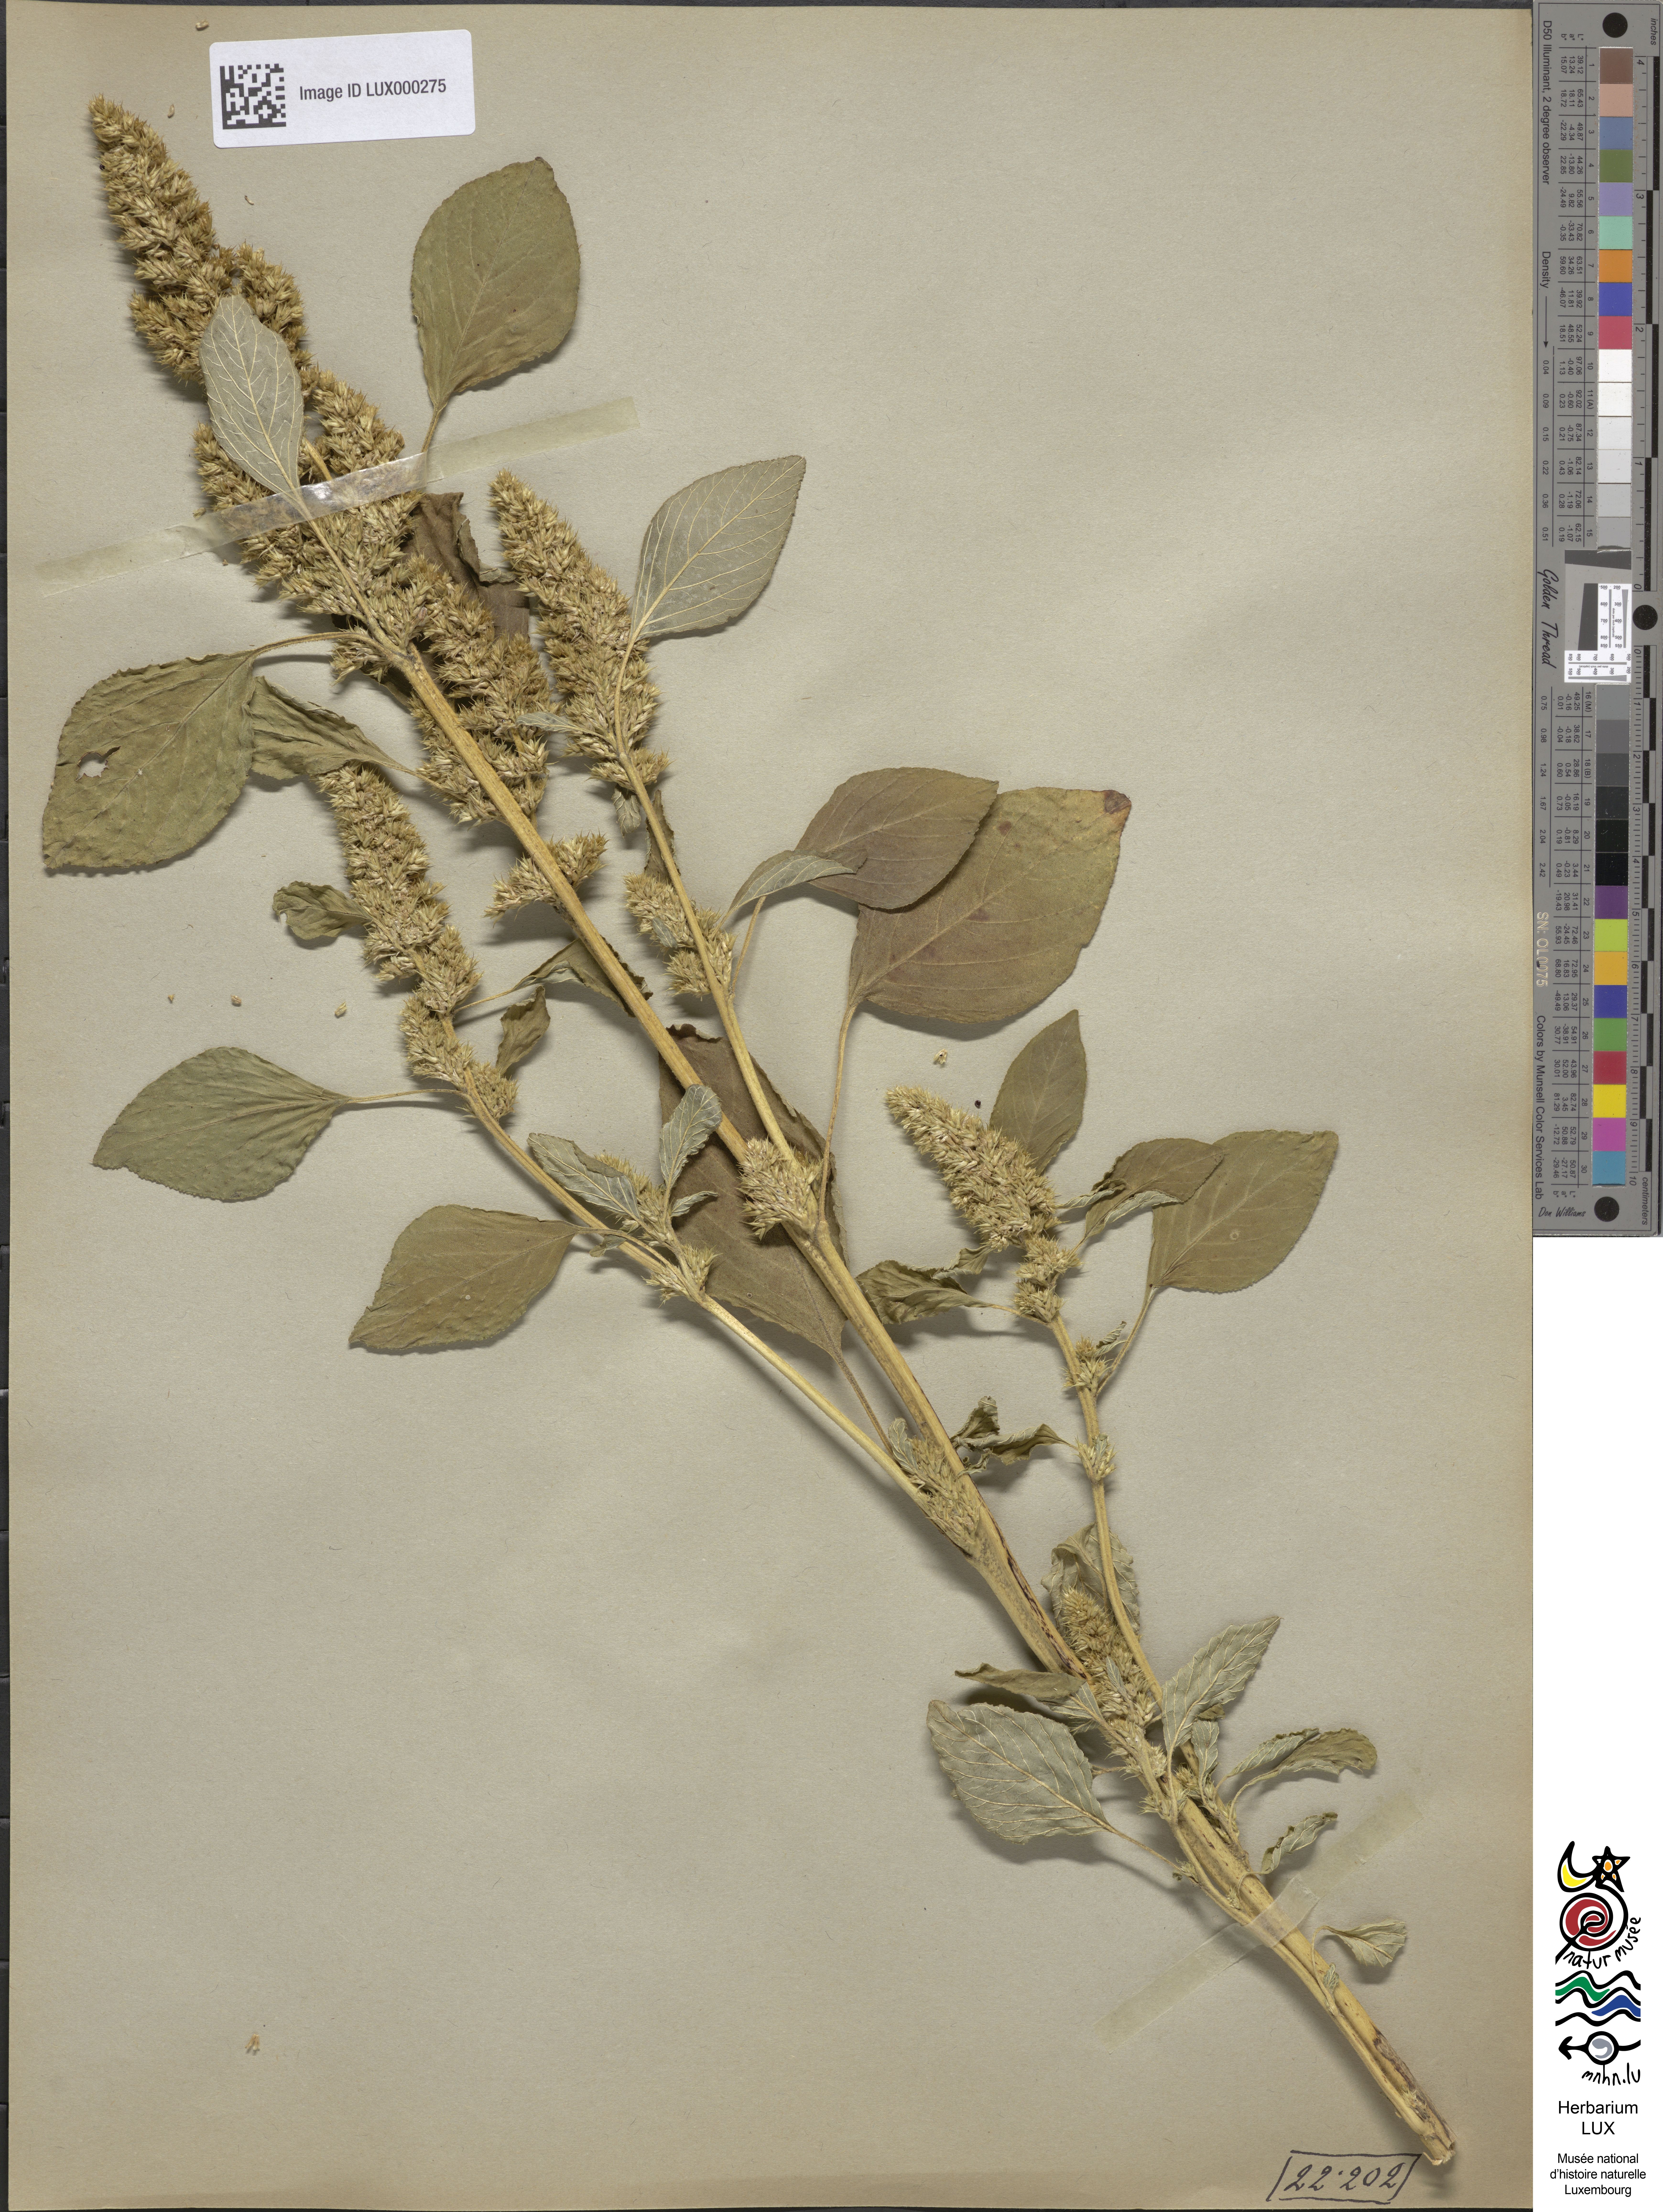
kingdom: Plantae
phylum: Tracheophyta
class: Magnoliopsida
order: Caryophyllales
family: Amaranthaceae
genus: Amaranthus
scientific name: Amaranthus retroflexus
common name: Redroot amaranth
